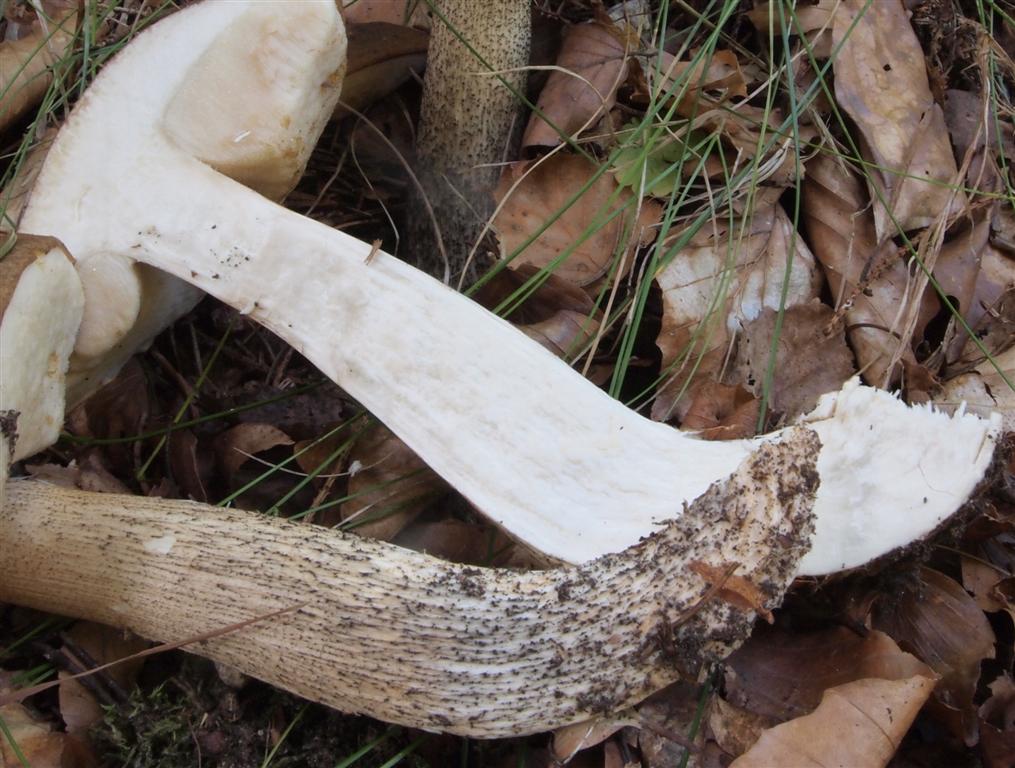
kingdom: Fungi
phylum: Basidiomycota
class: Agaricomycetes
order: Boletales
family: Boletaceae
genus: Leccinum
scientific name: Leccinum scabrum
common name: brun skælrørhat
